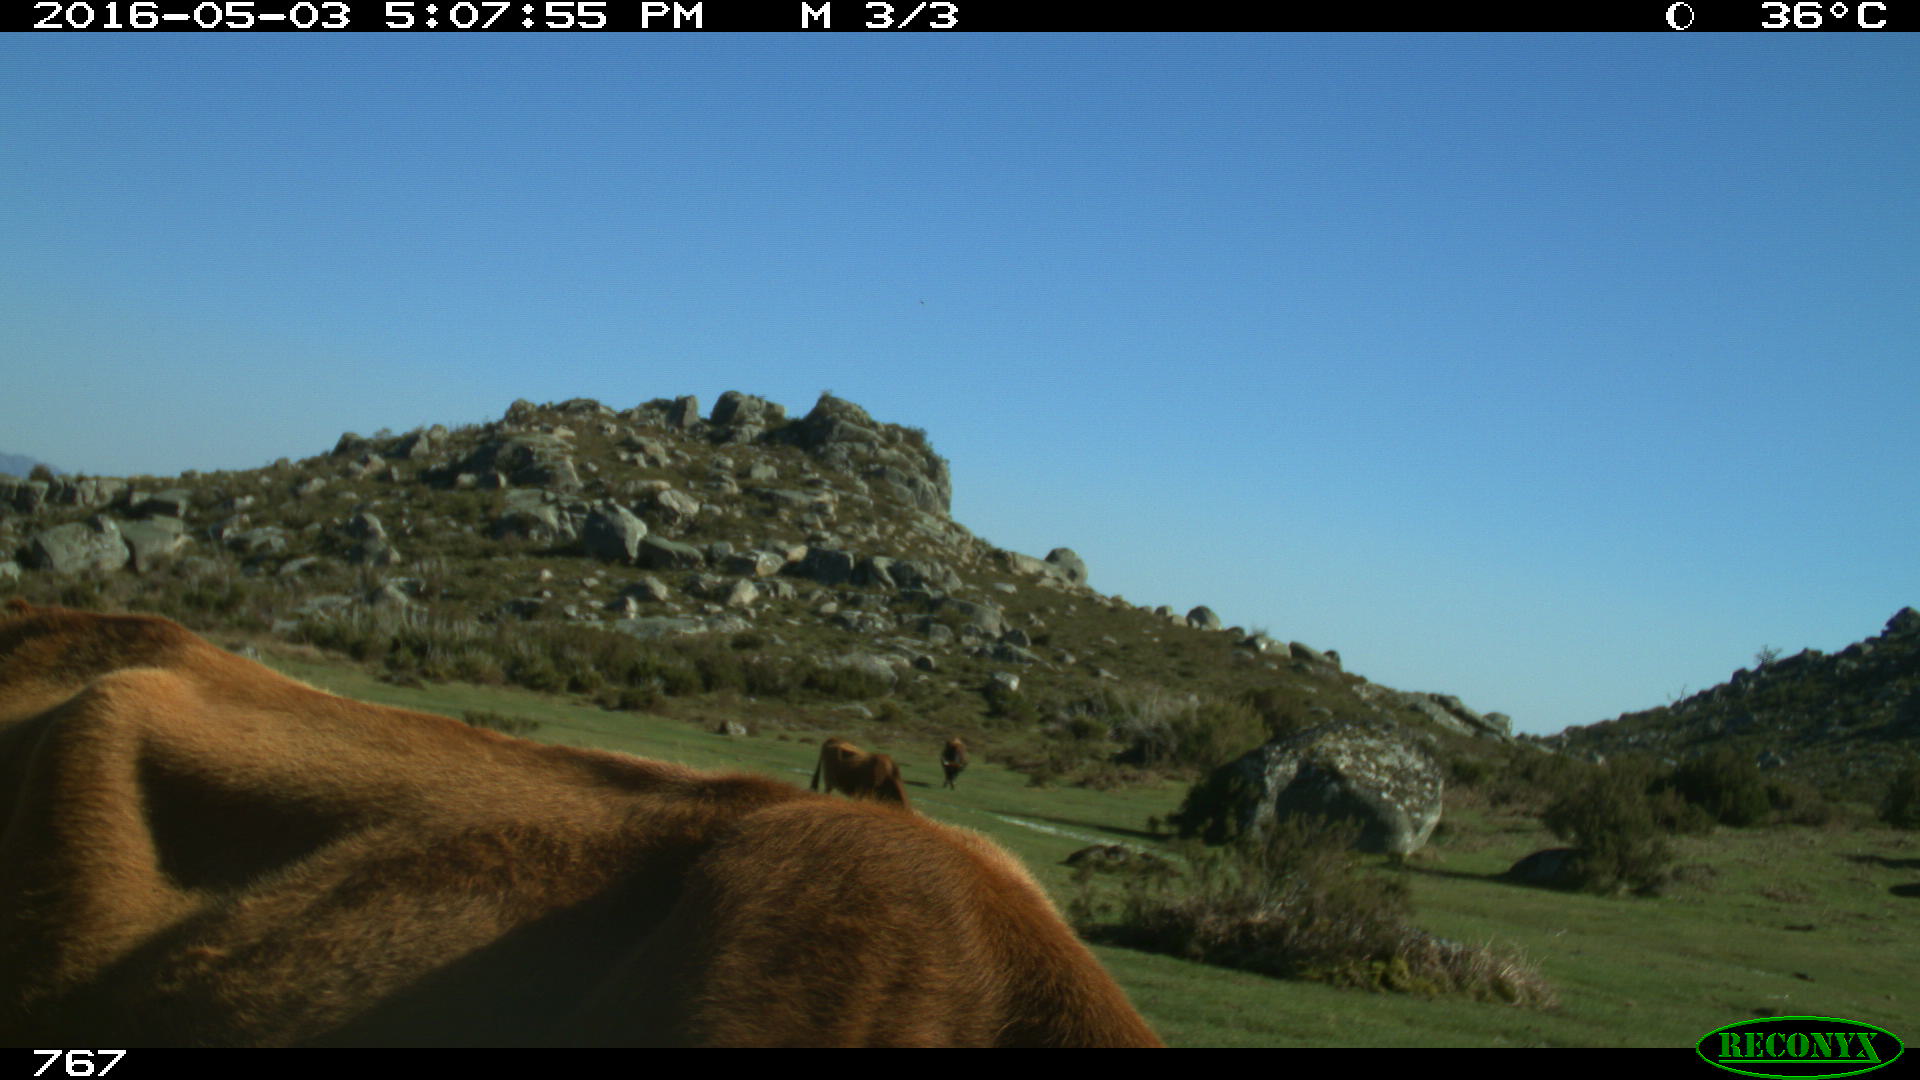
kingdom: Animalia
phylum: Chordata
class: Mammalia
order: Artiodactyla
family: Bovidae
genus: Bos
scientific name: Bos taurus
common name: Domesticated cattle
